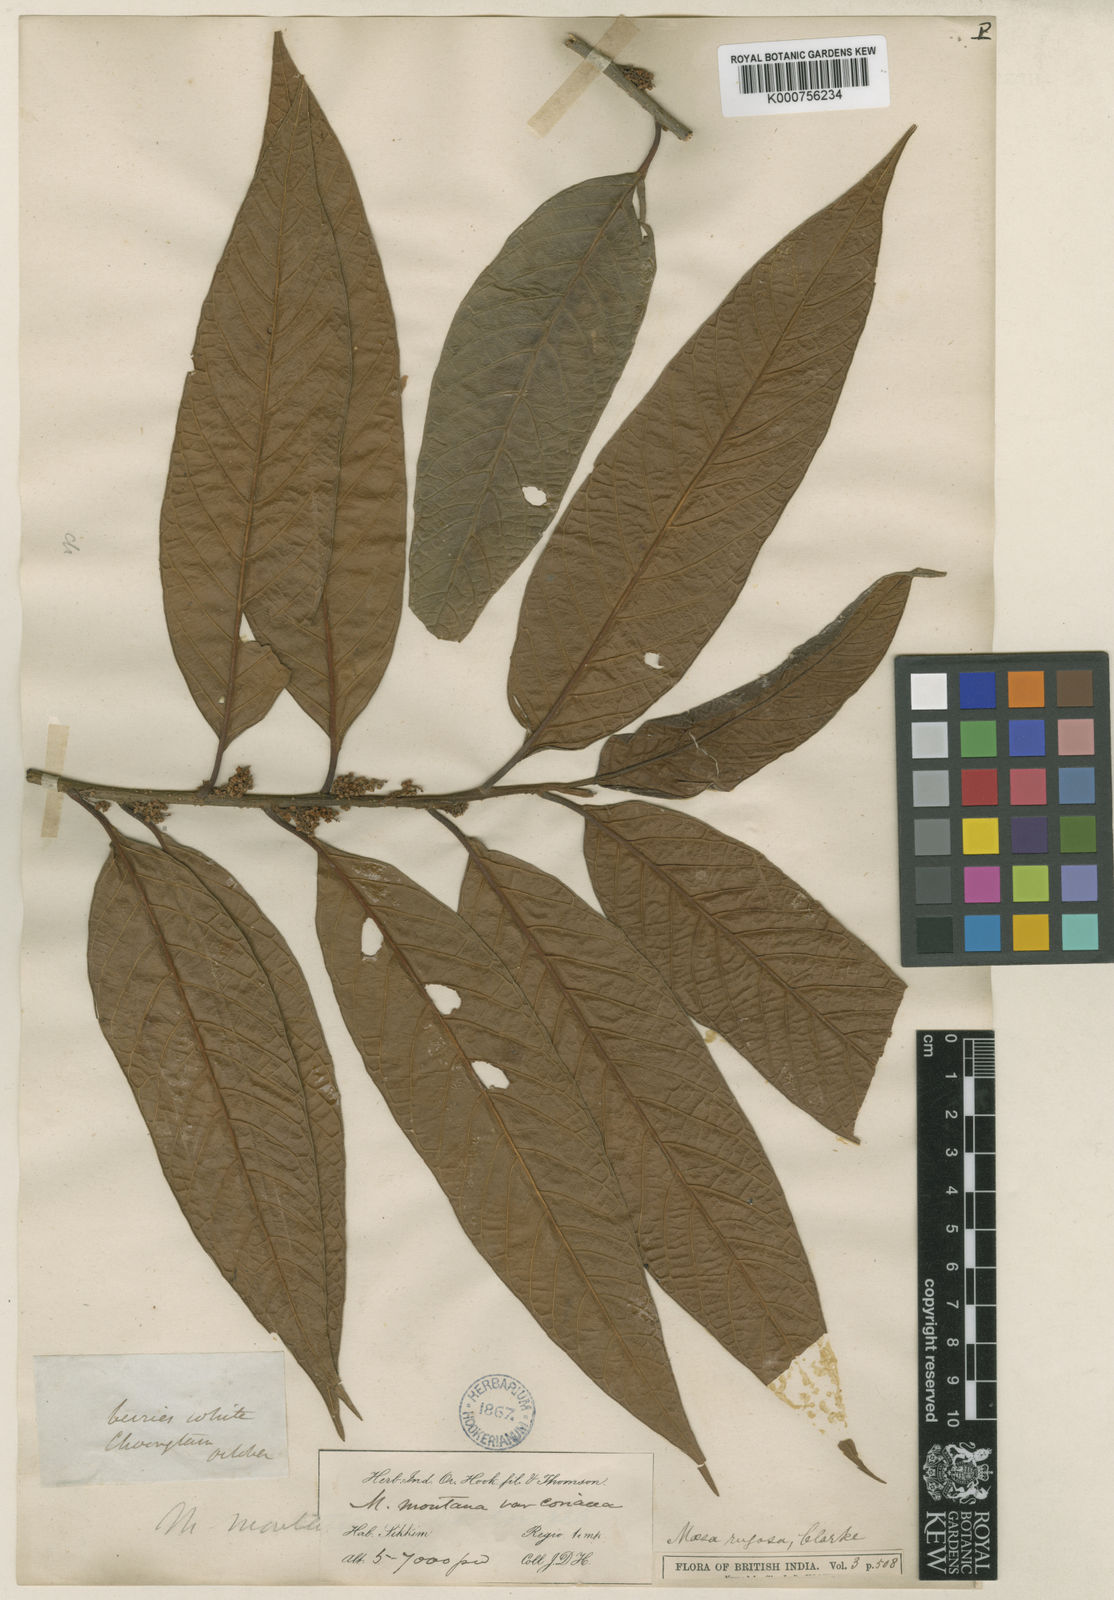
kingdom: Plantae
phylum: Tracheophyta
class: Magnoliopsida
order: Ericales
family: Primulaceae
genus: Maesa
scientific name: Maesa rugosa
